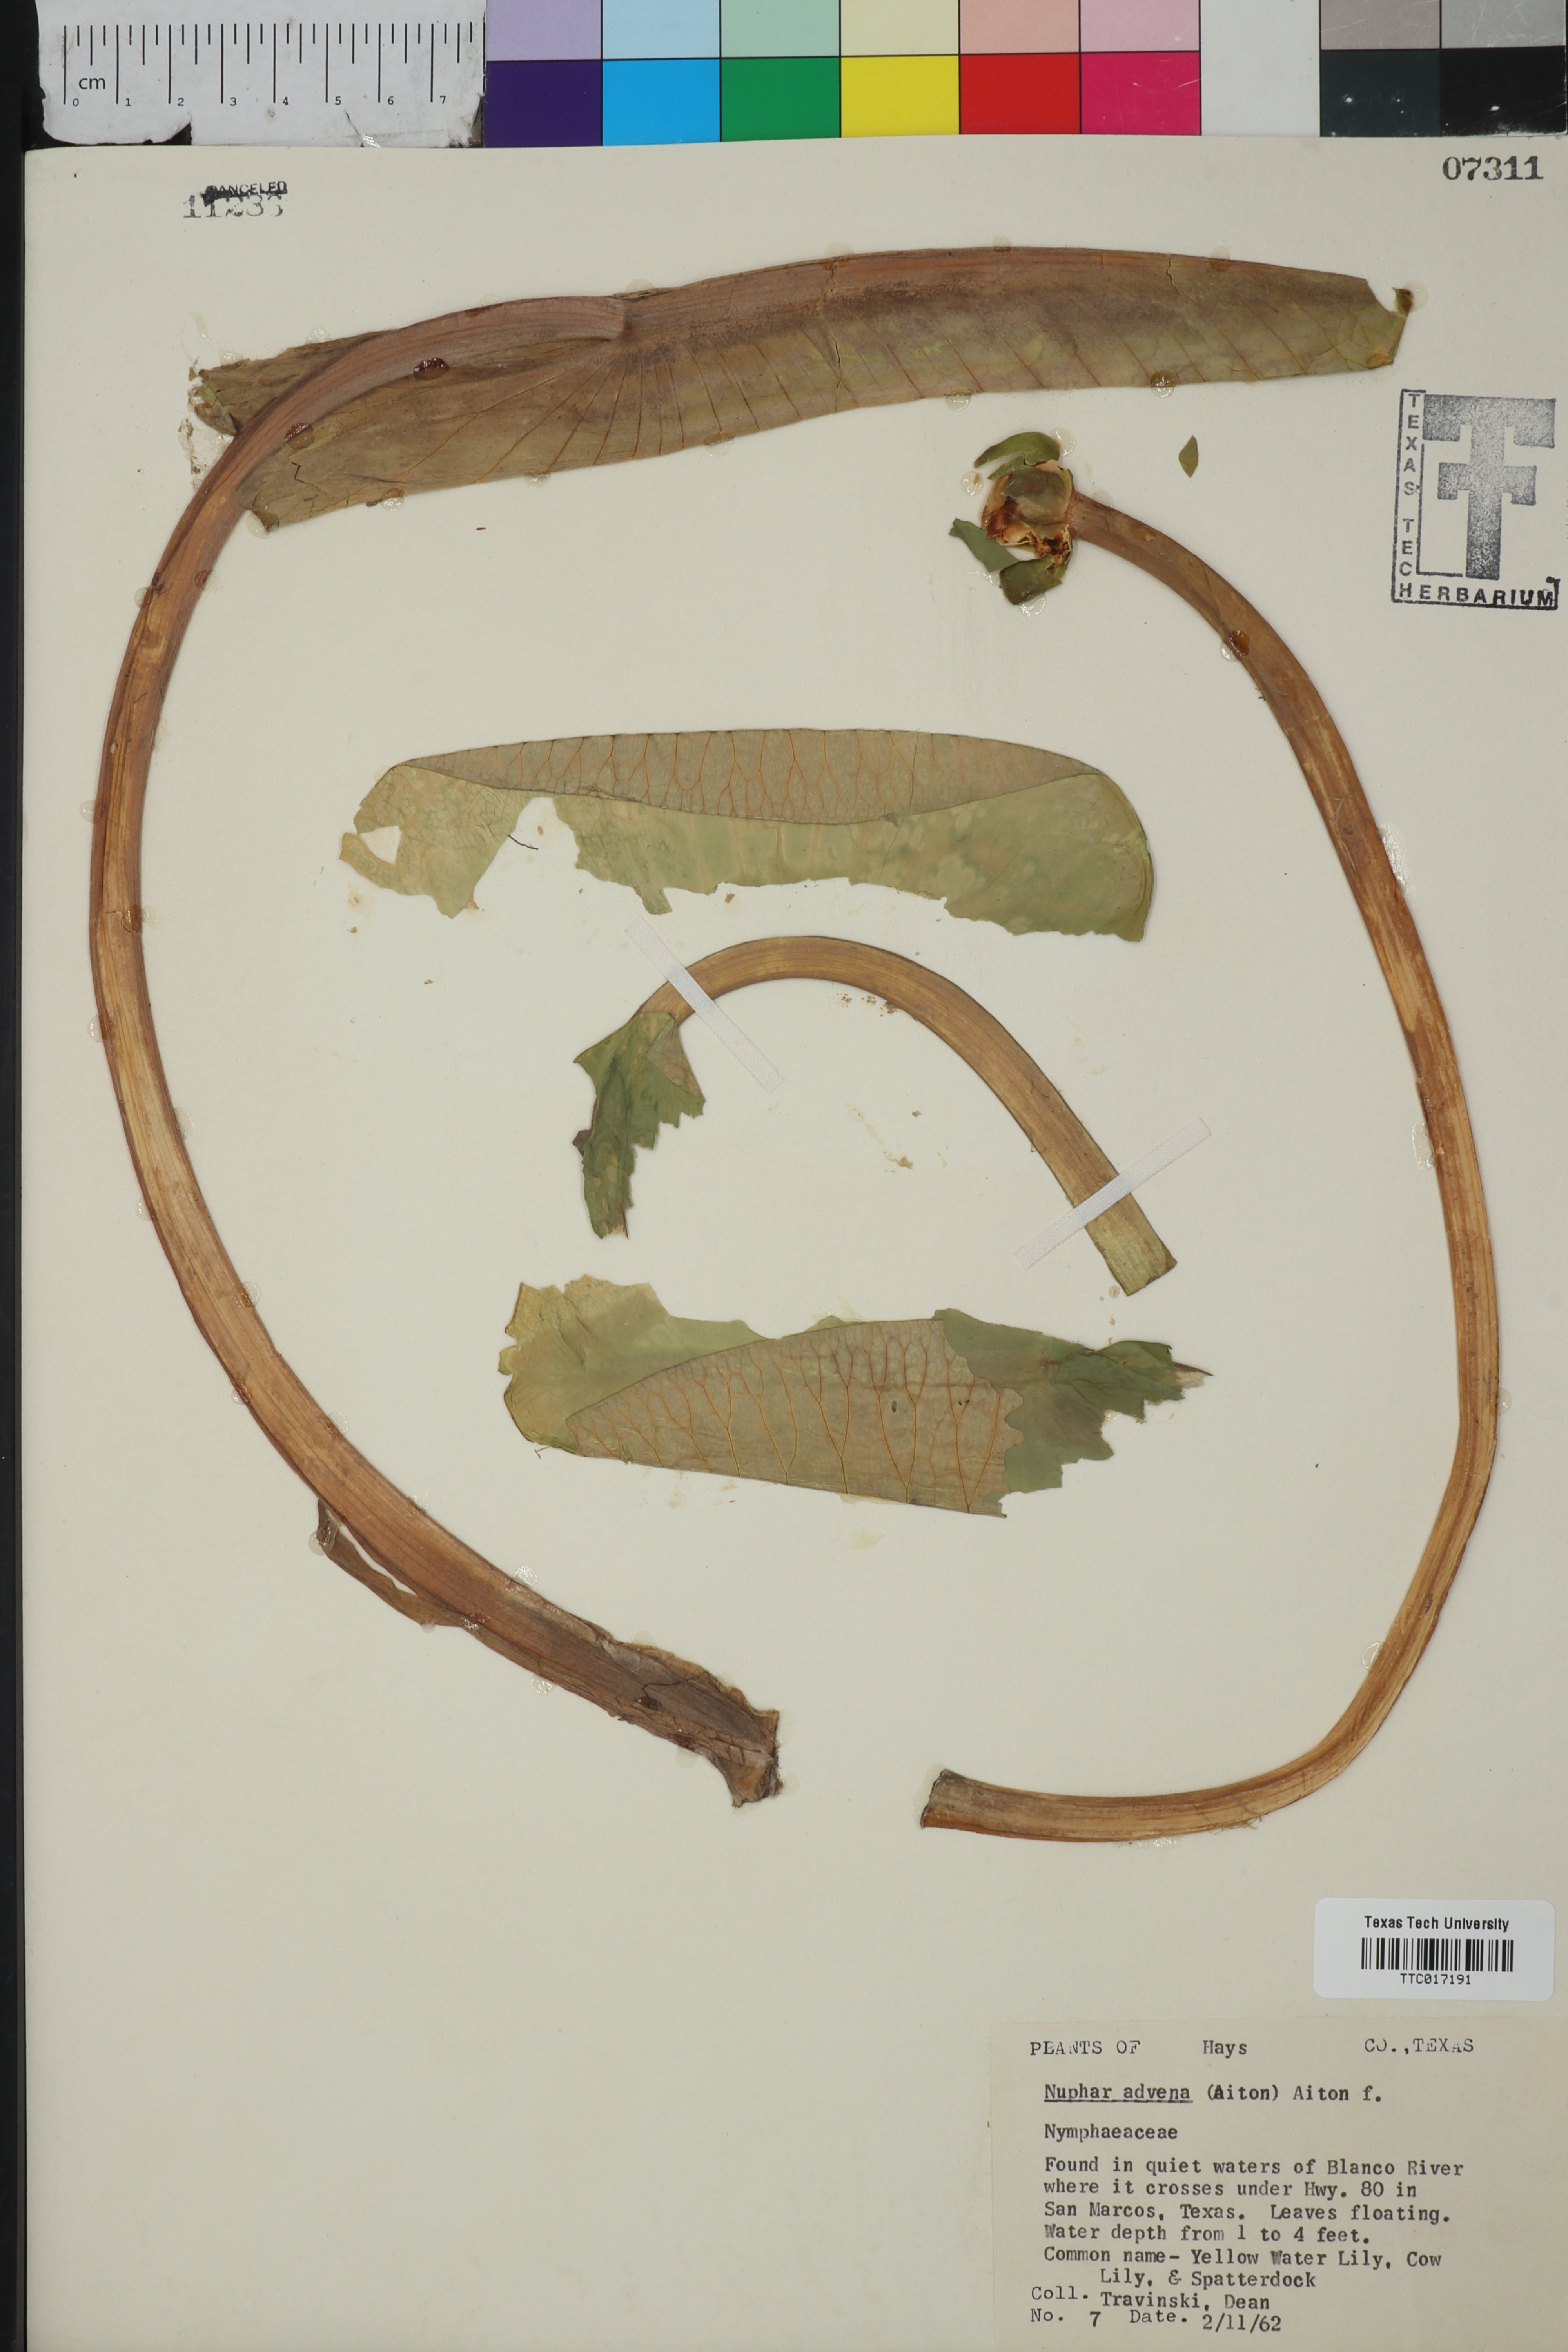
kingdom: Plantae
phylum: Tracheophyta
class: Magnoliopsida
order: Nymphaeales
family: Nymphaeaceae
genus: Nuphar
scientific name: Nuphar advena
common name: Spatter-dock
